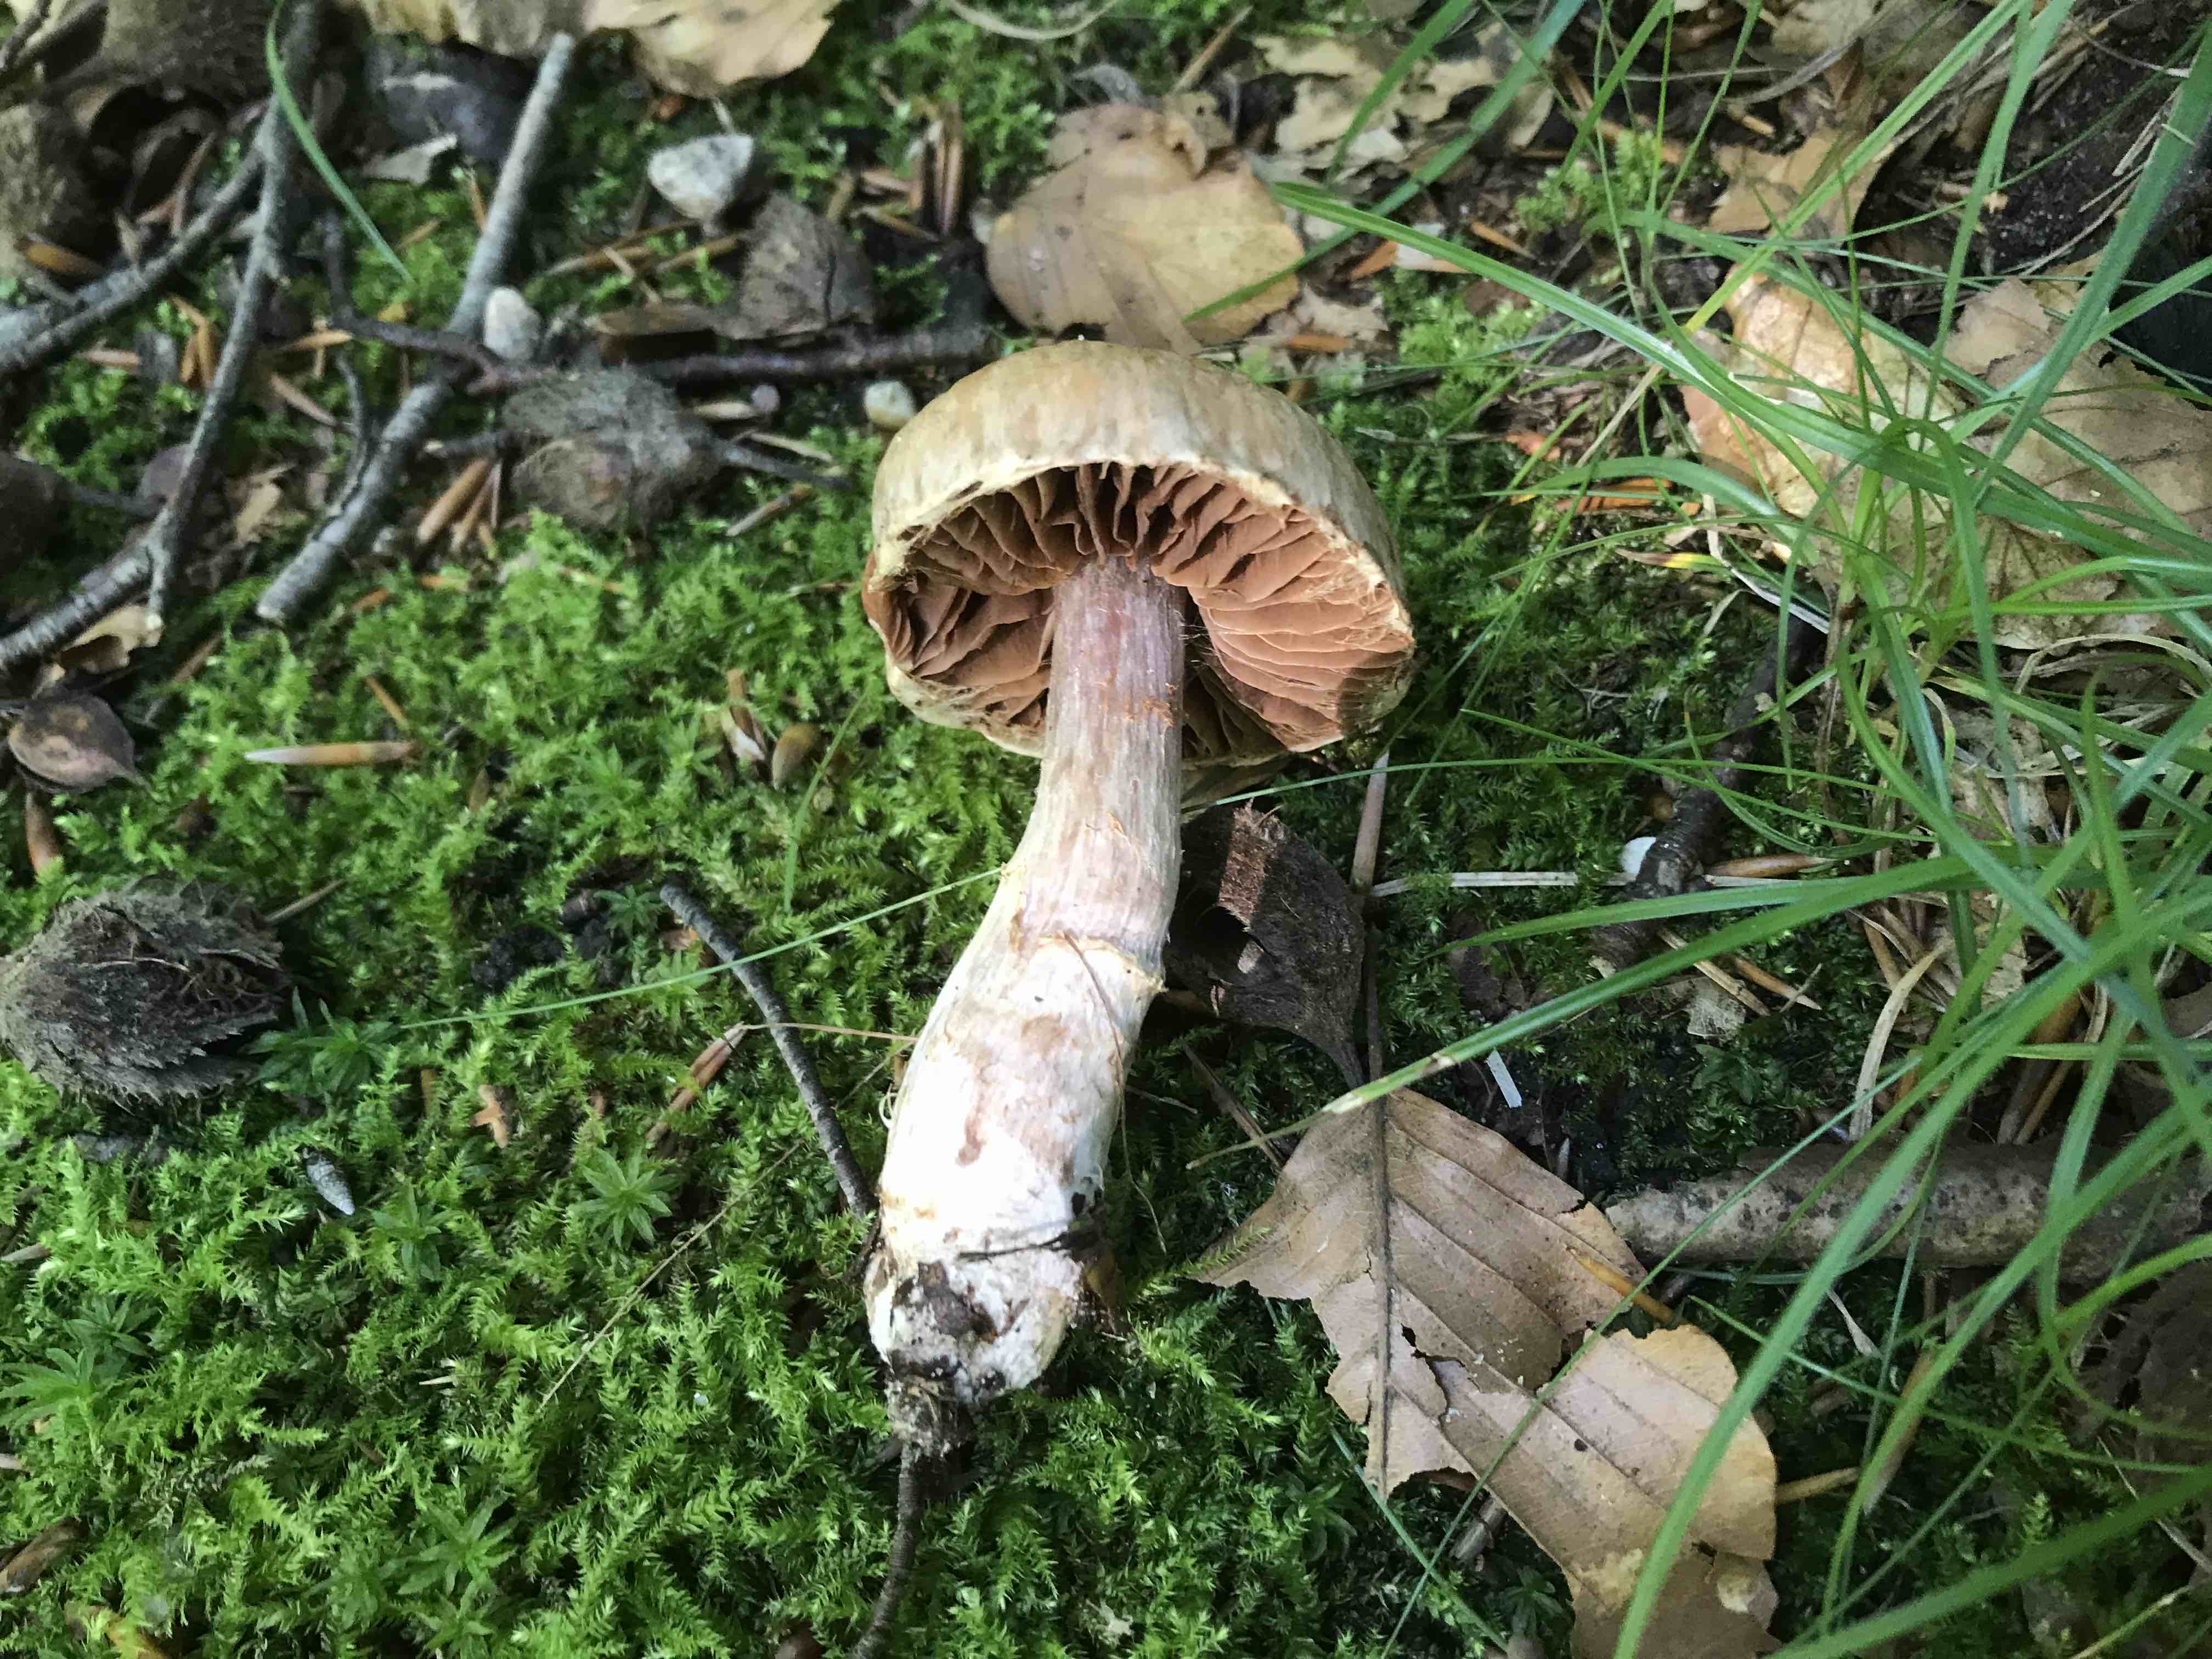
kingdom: Fungi
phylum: Basidiomycota
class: Agaricomycetes
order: Agaricales
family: Cortinariaceae
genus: Cortinarius
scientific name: Cortinarius torvus
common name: champignonagtig slørhat
